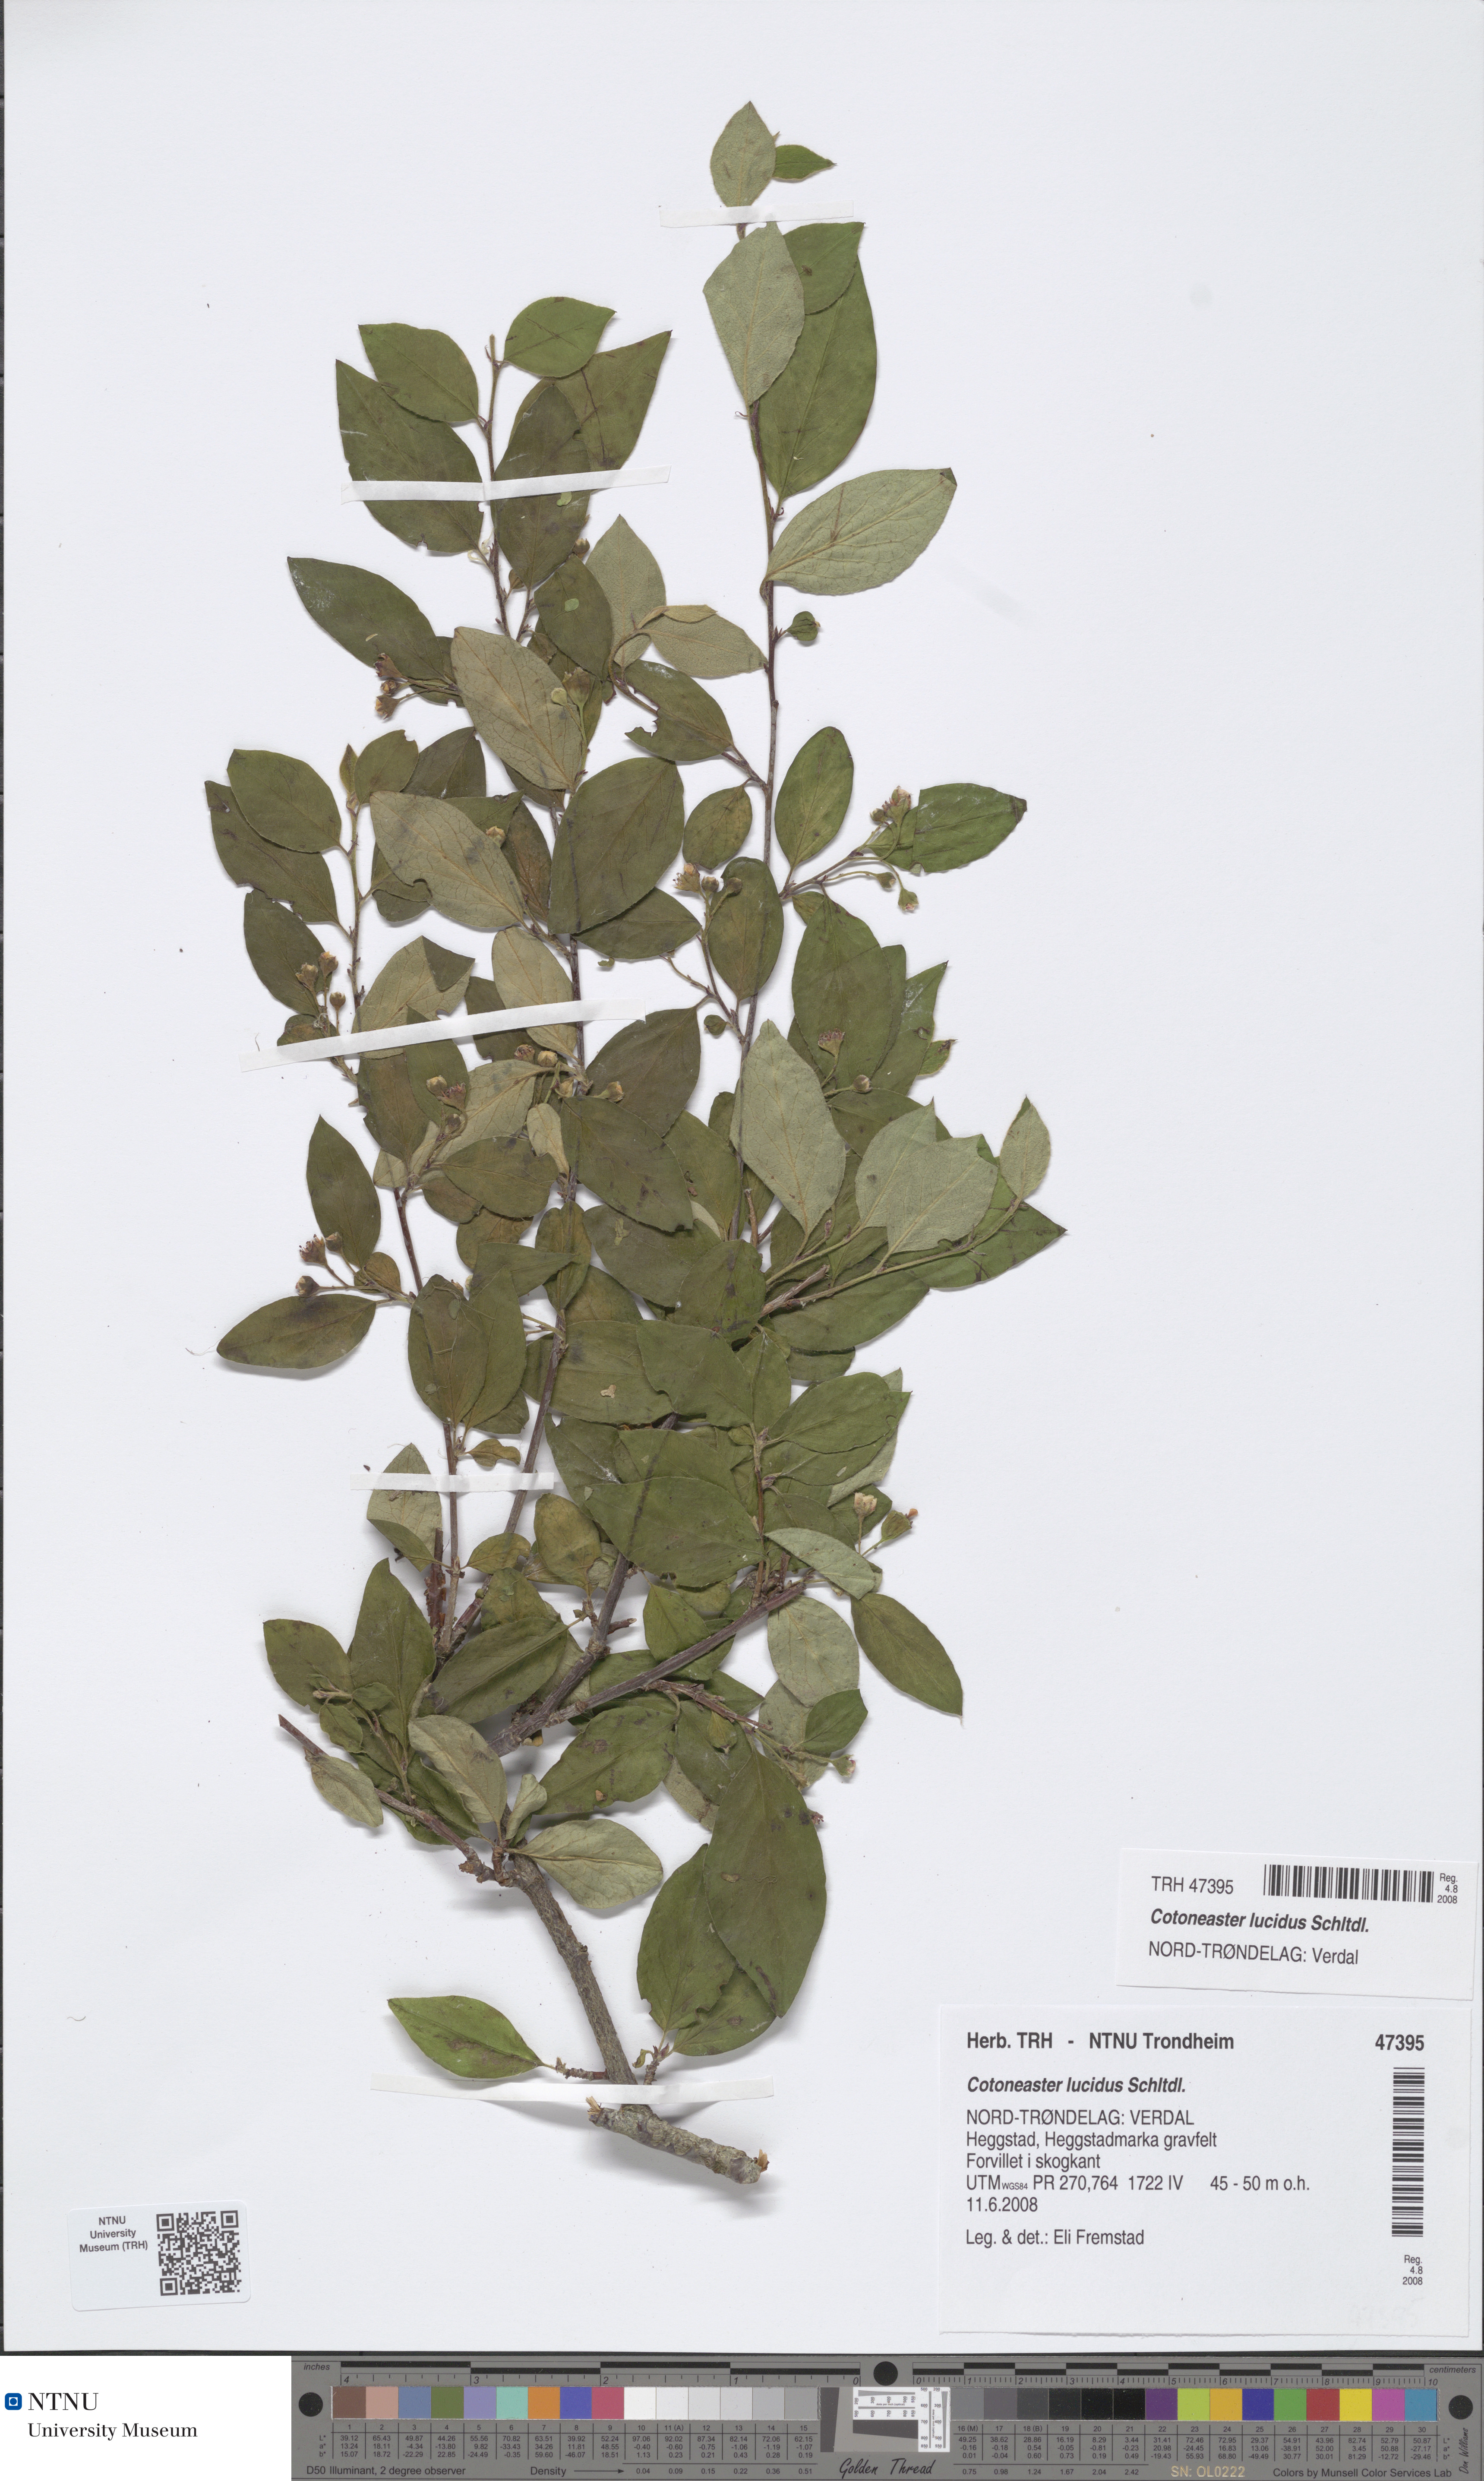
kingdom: Plantae
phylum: Tracheophyta
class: Magnoliopsida
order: Rosales
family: Rosaceae
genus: Cotoneaster
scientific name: Cotoneaster acutifolius
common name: Peking cotoneaster
